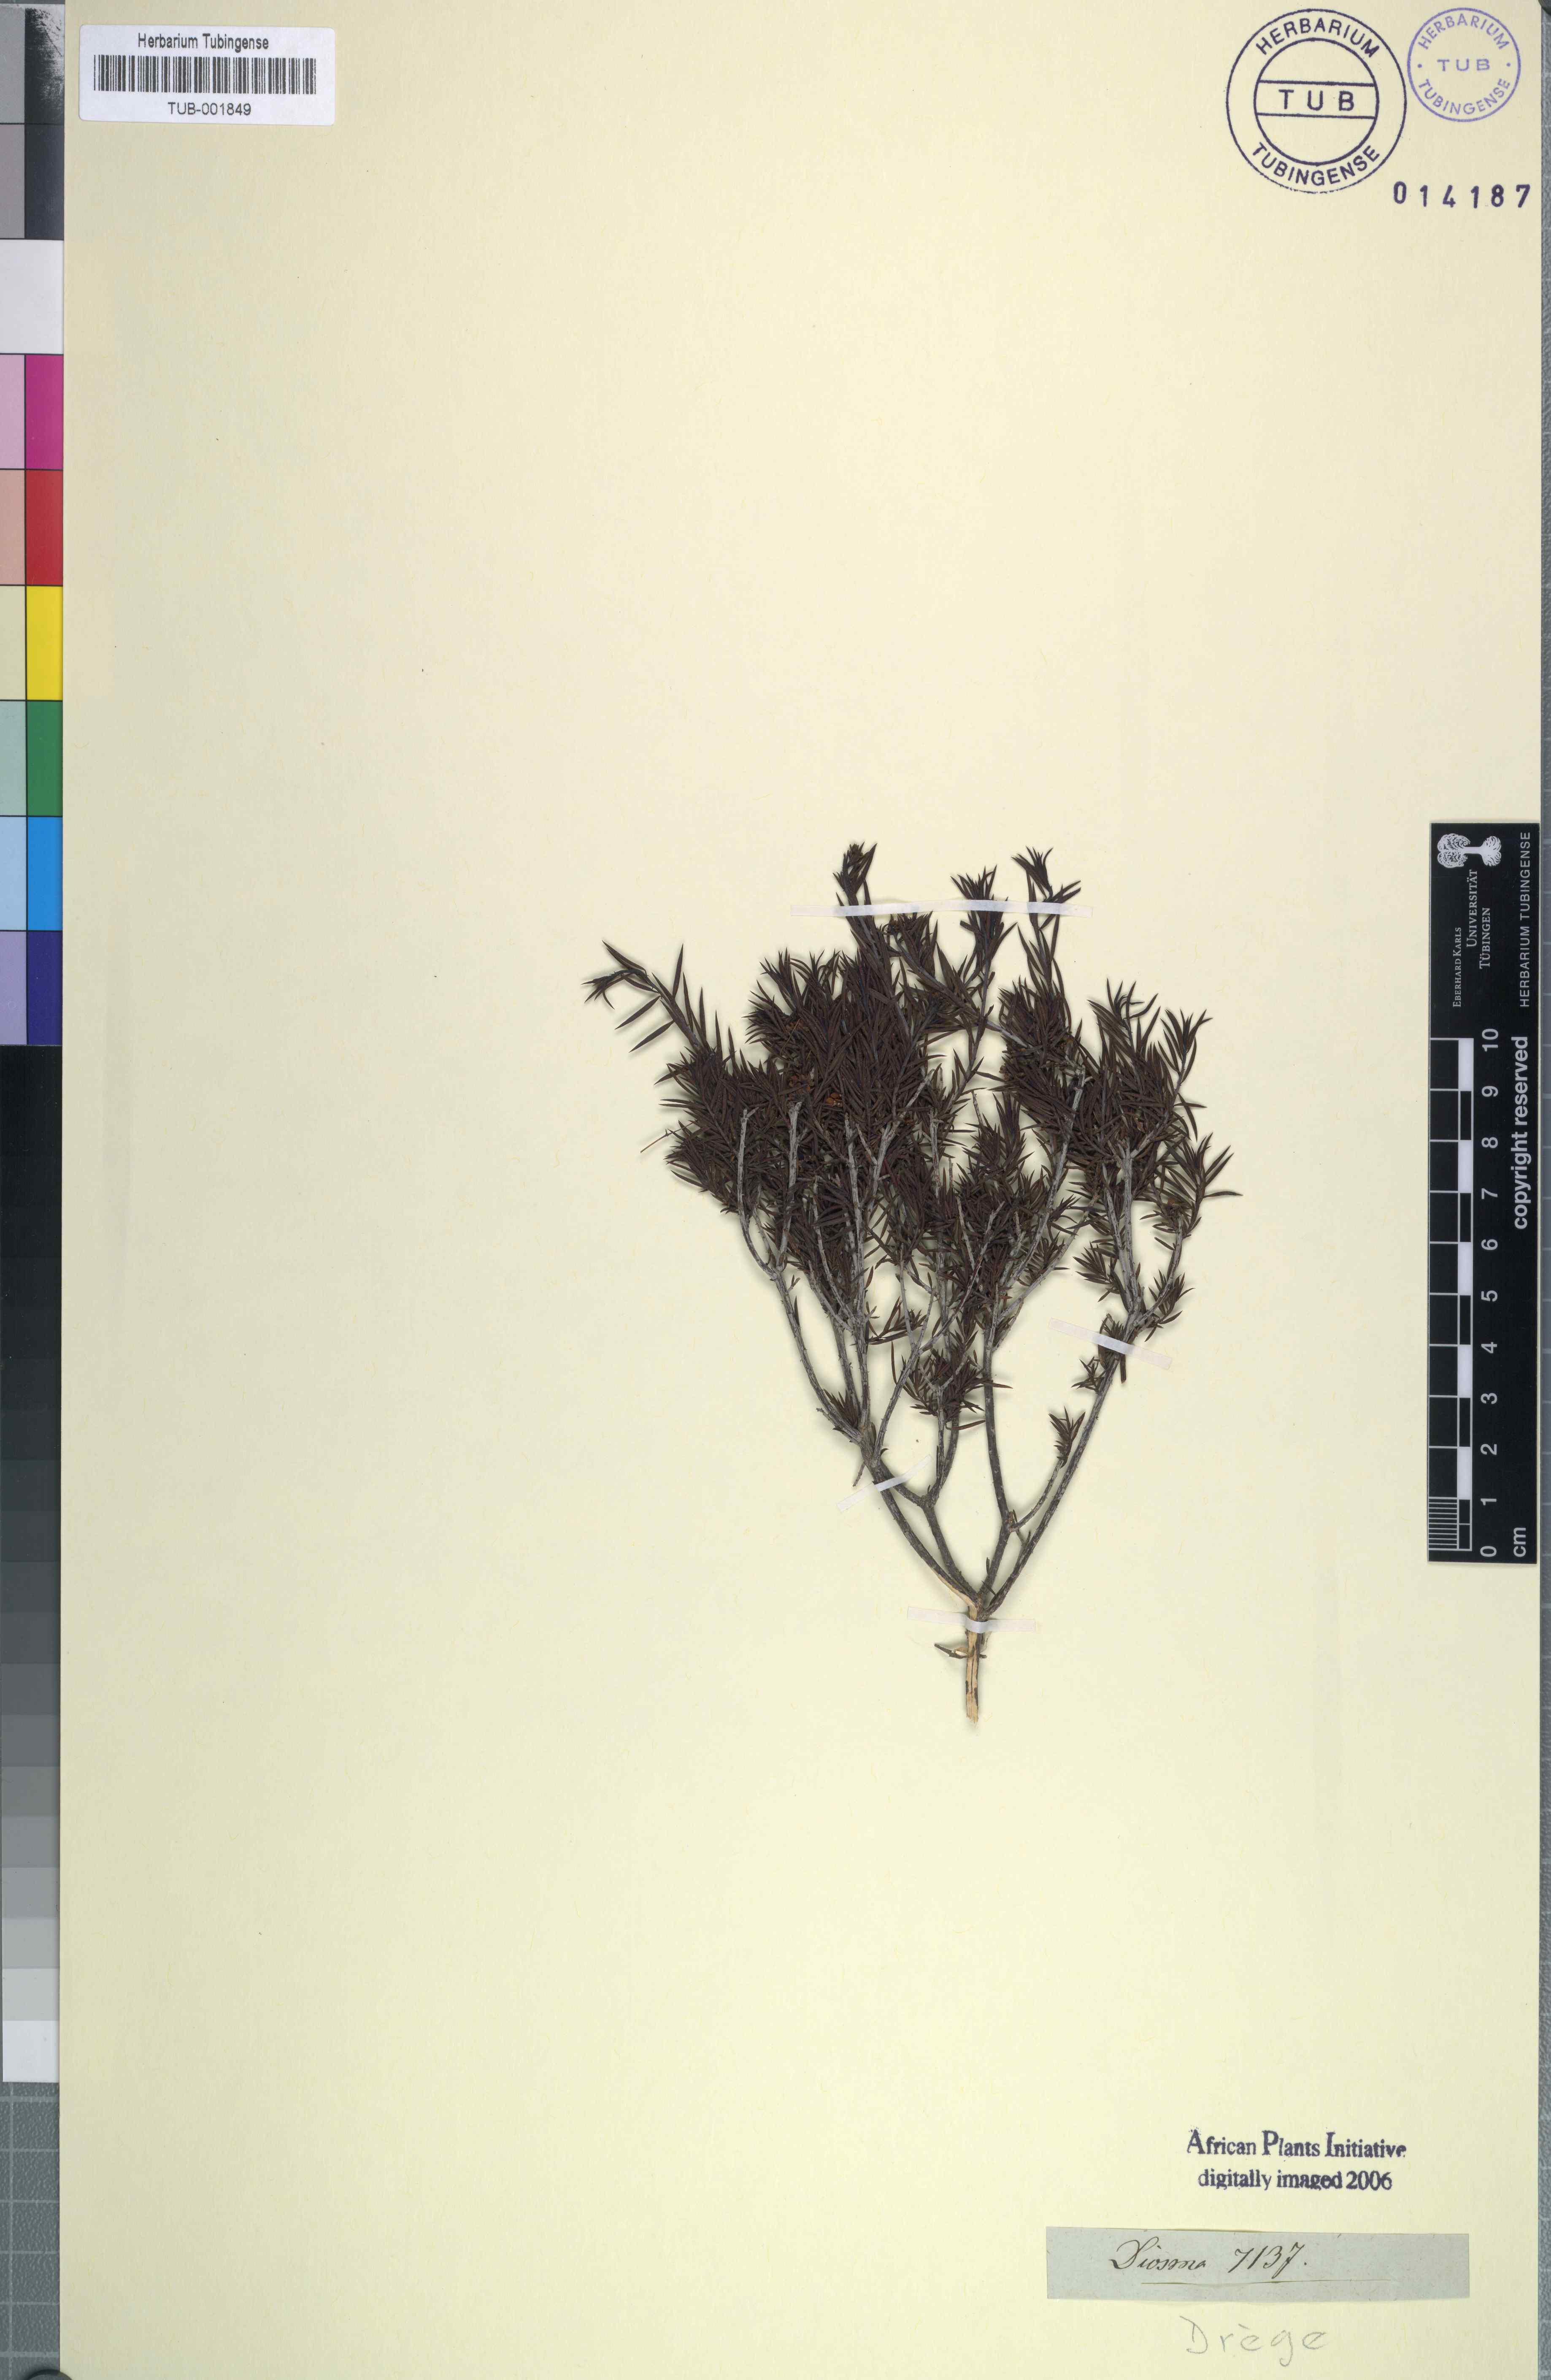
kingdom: Plantae
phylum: Tracheophyta
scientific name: Tracheophyta
